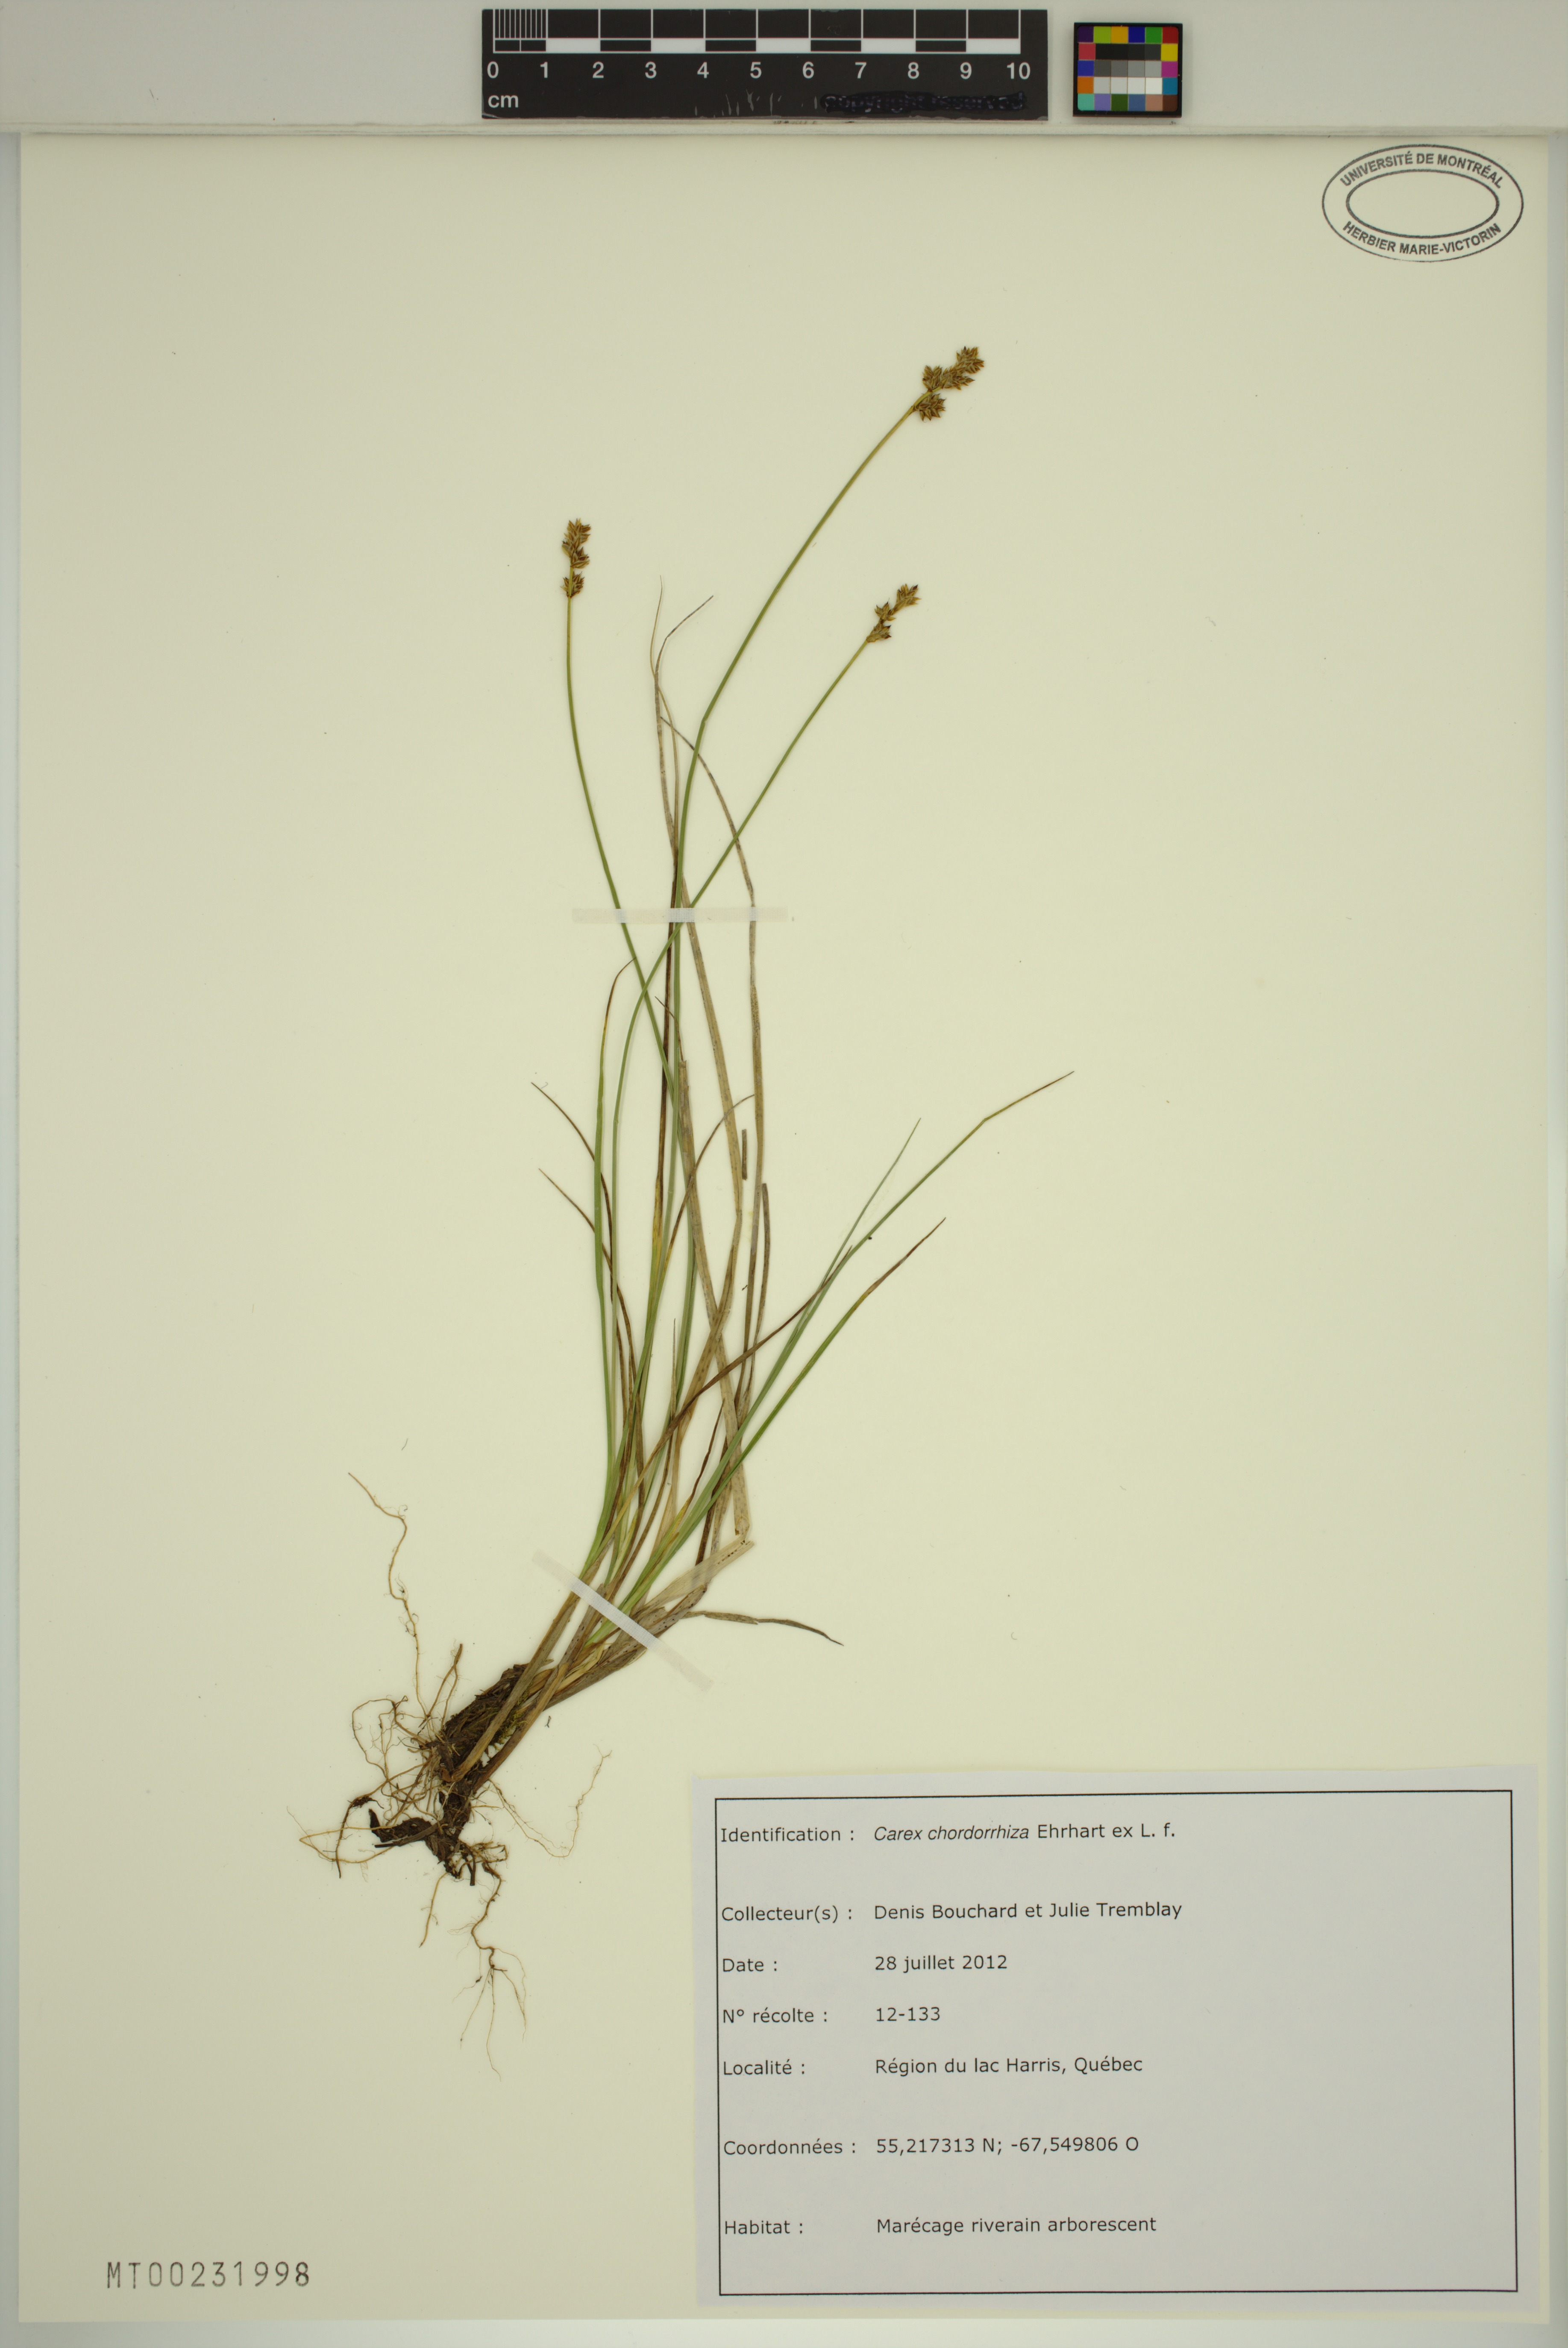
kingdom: Plantae
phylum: Tracheophyta
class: Liliopsida
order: Poales
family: Cyperaceae
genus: Carex
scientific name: Carex chordorrhiza
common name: String sedge
